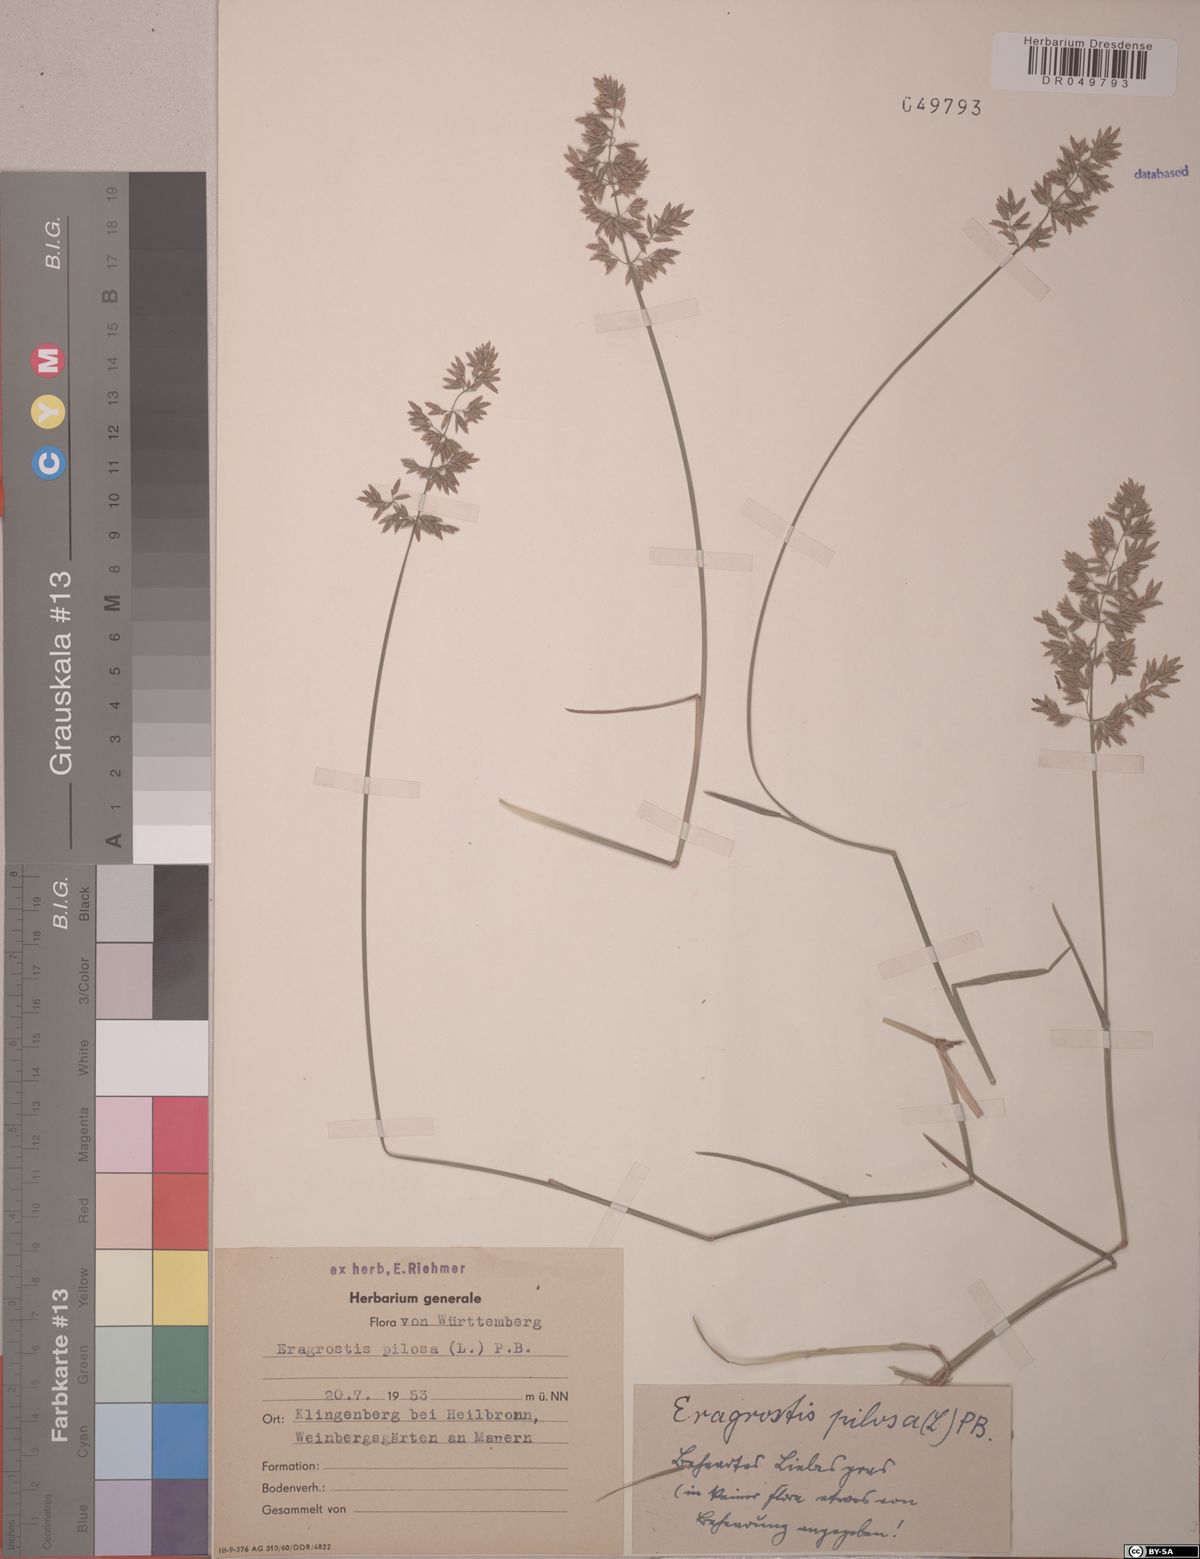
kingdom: Plantae
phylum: Tracheophyta
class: Liliopsida
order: Poales
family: Poaceae
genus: Eragrostis
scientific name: Eragrostis pilosa
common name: Indian lovegrass
